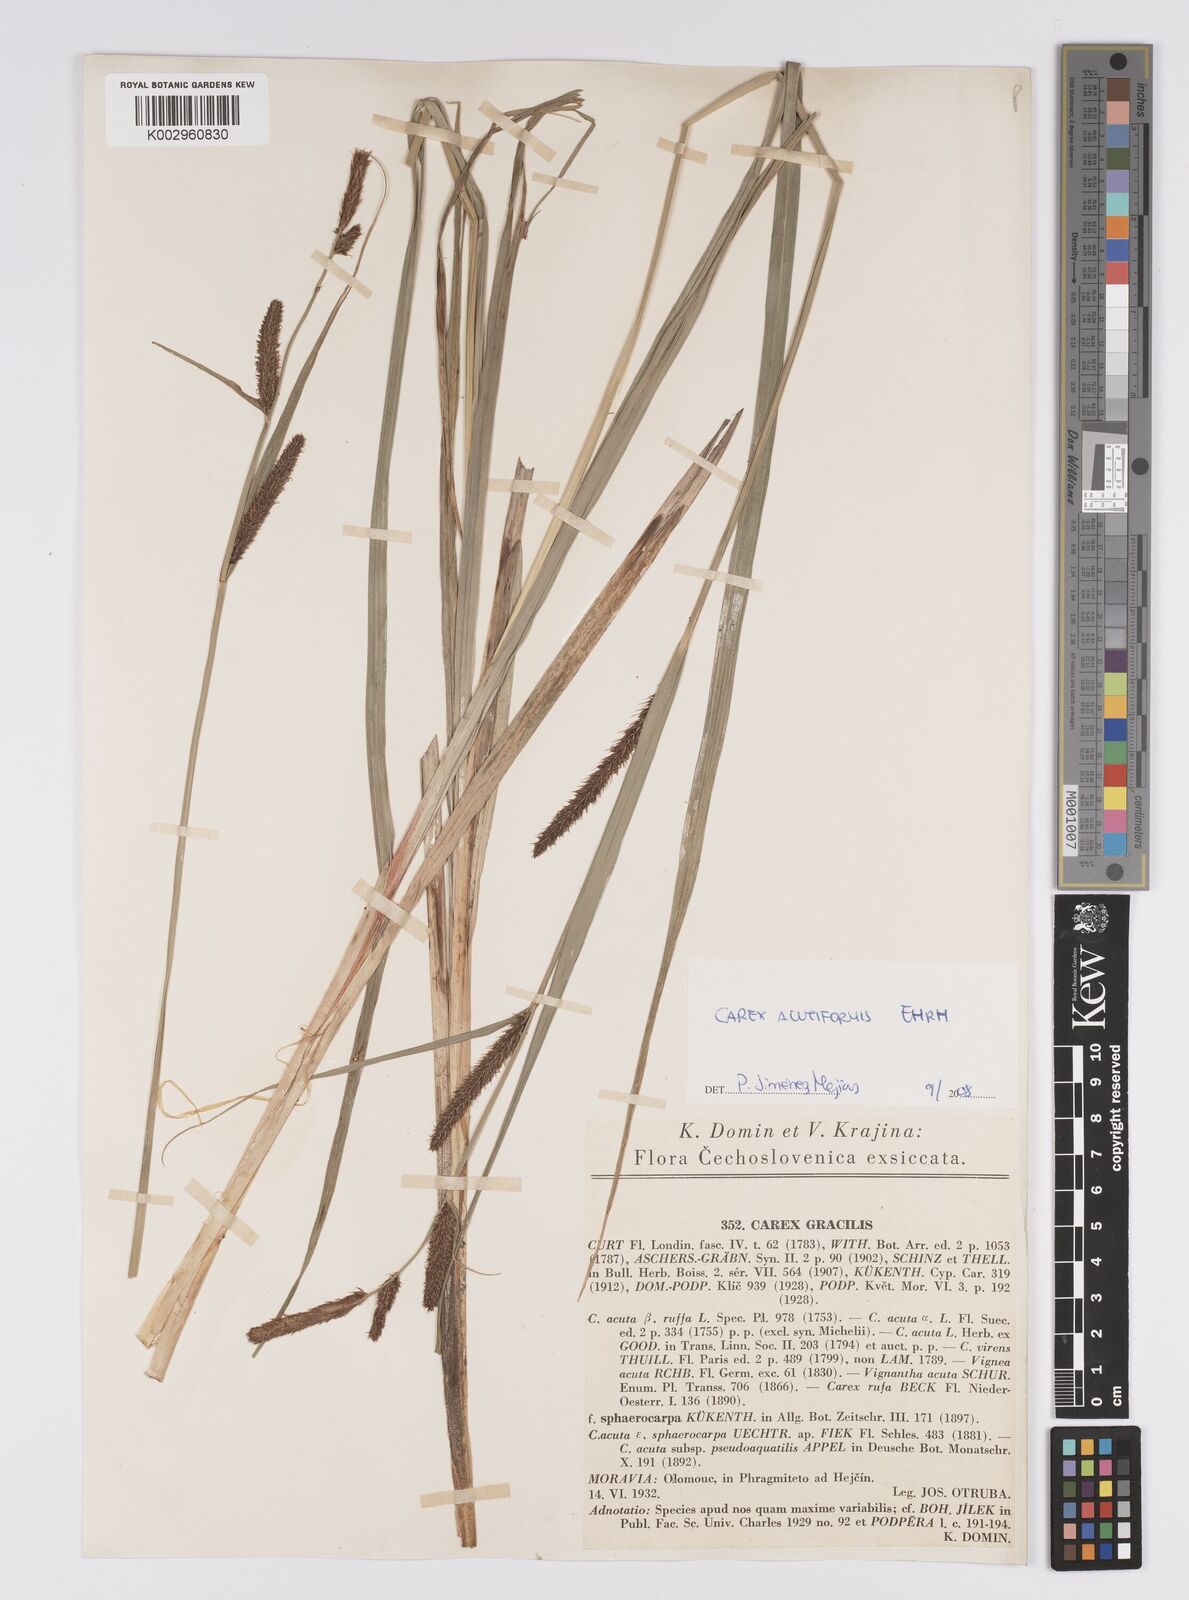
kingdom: Plantae
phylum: Tracheophyta
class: Liliopsida
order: Poales
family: Cyperaceae
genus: Carex
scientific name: Carex acutiformis
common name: Lesser pond-sedge
